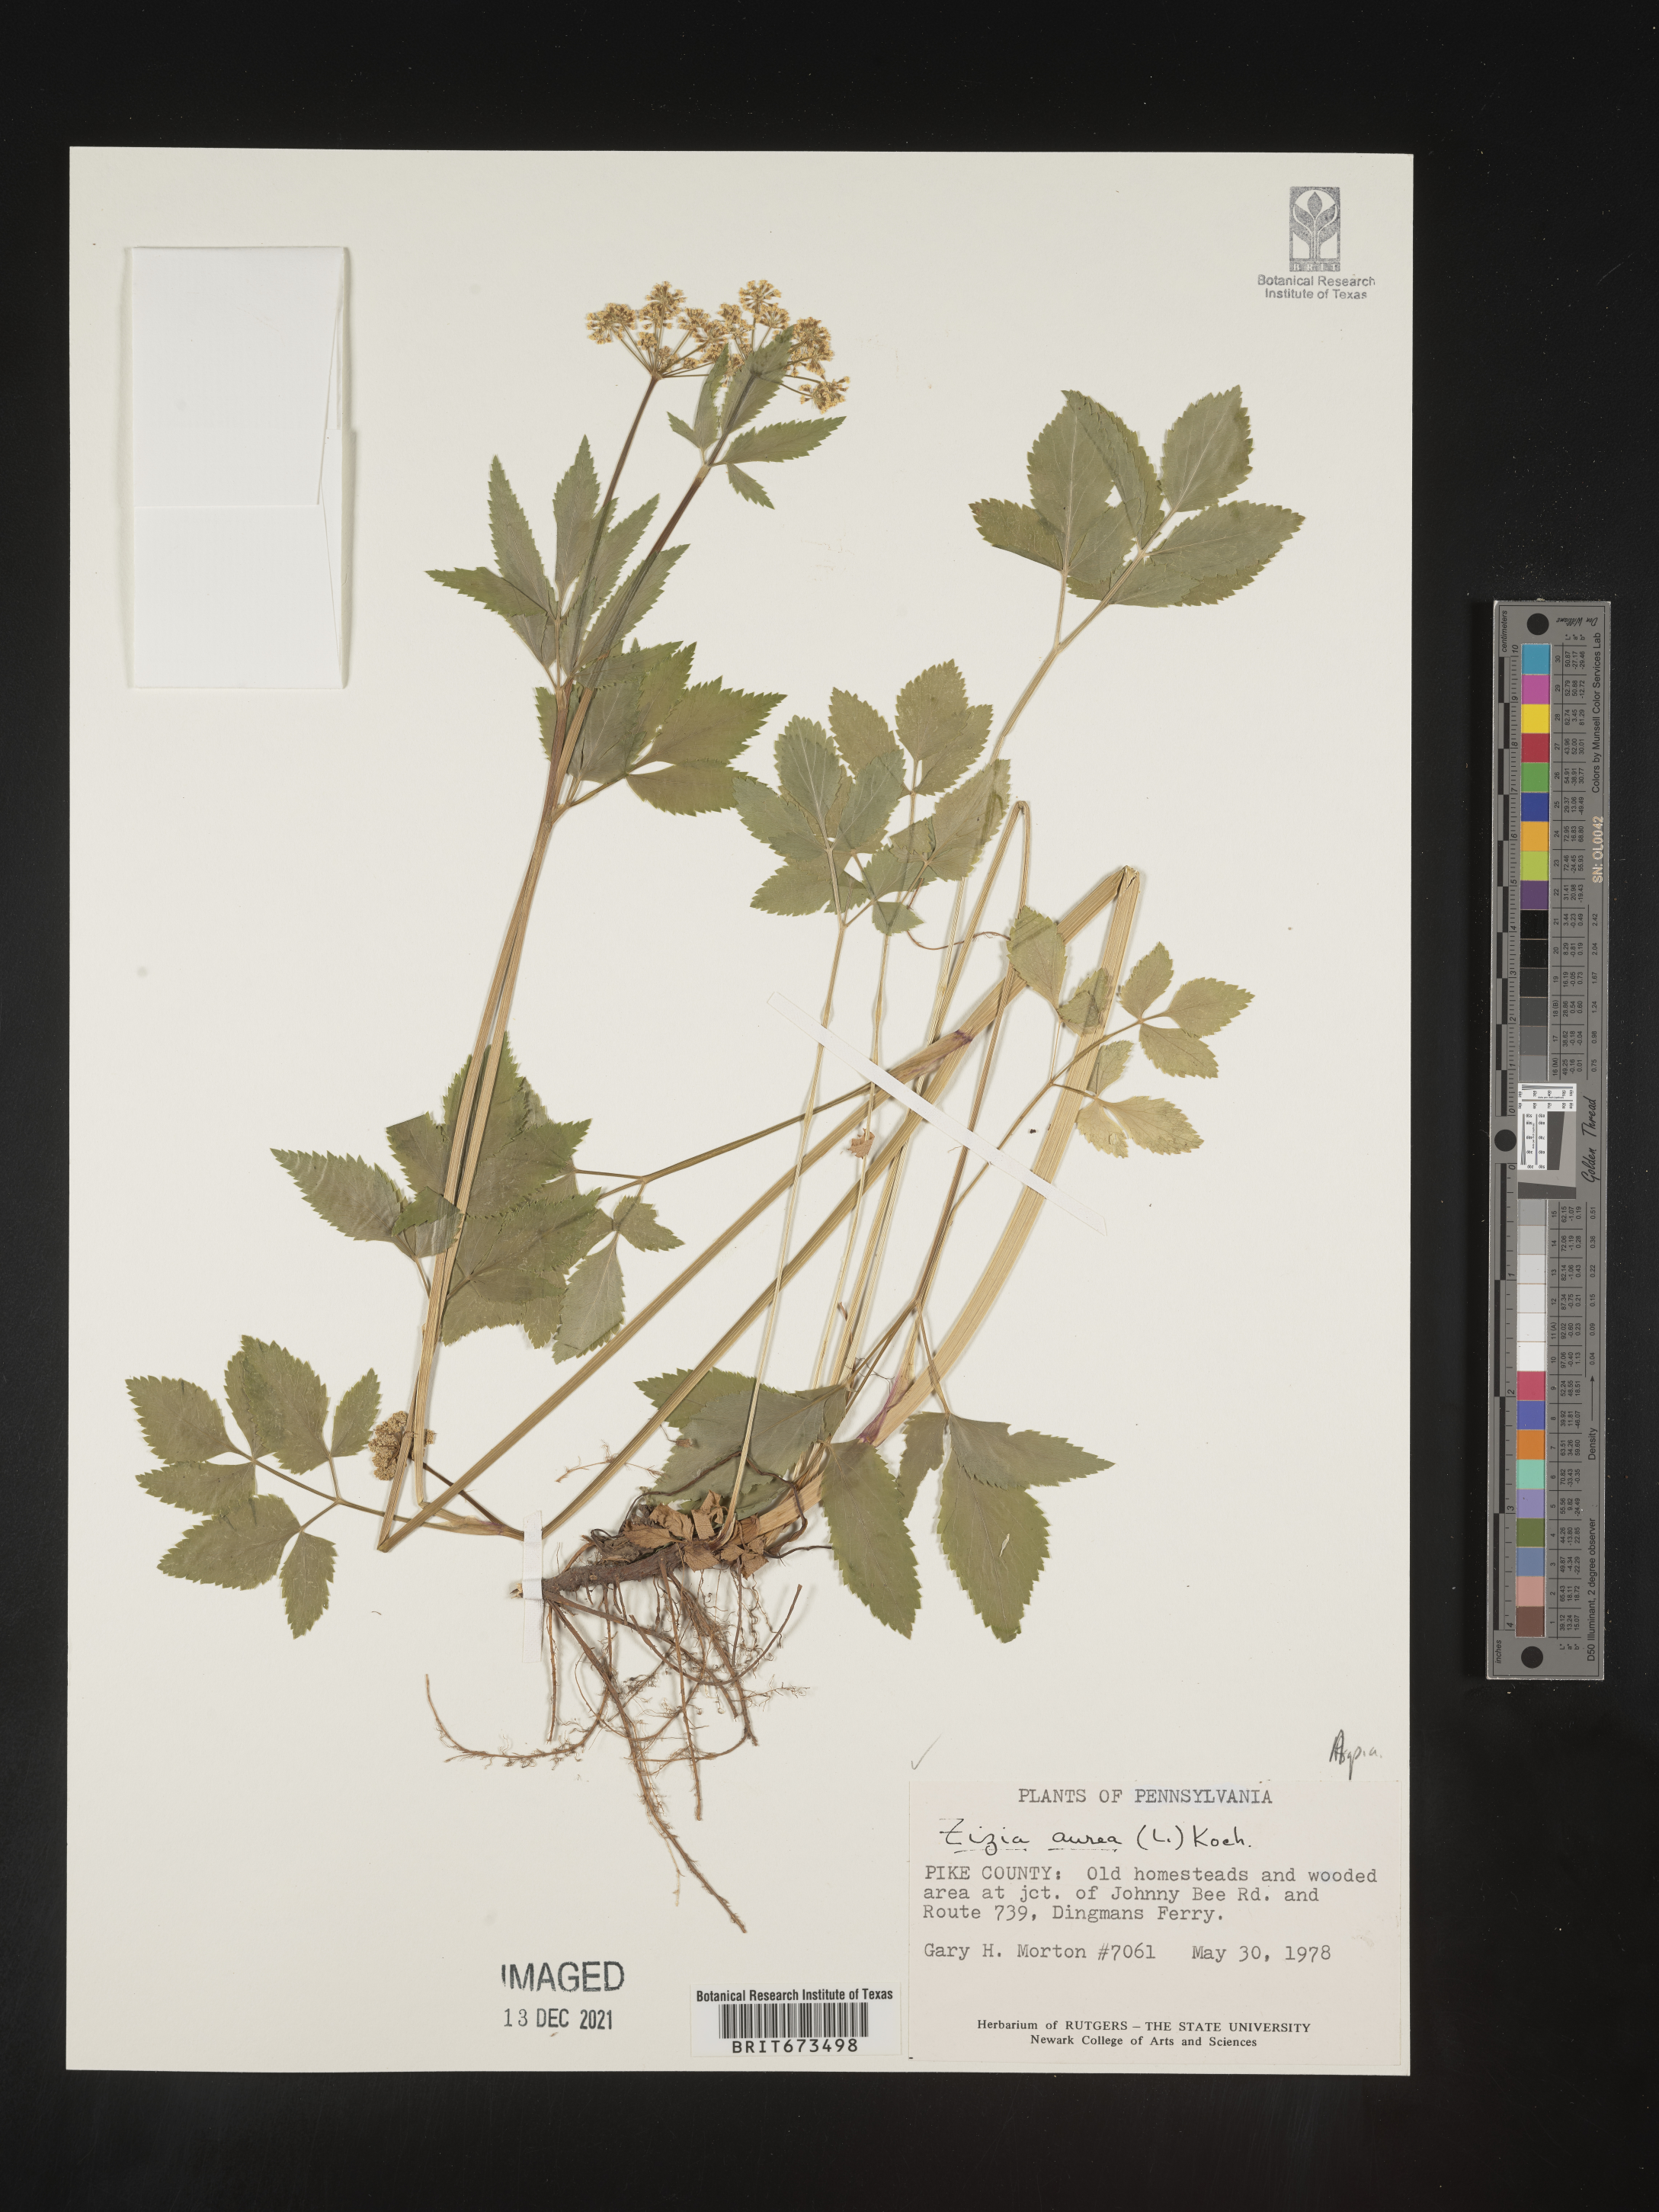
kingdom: Plantae
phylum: Tracheophyta
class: Magnoliopsida
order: Apiales
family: Apiaceae
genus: Zizia
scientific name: Zizia aurea
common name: Golden alexanders
